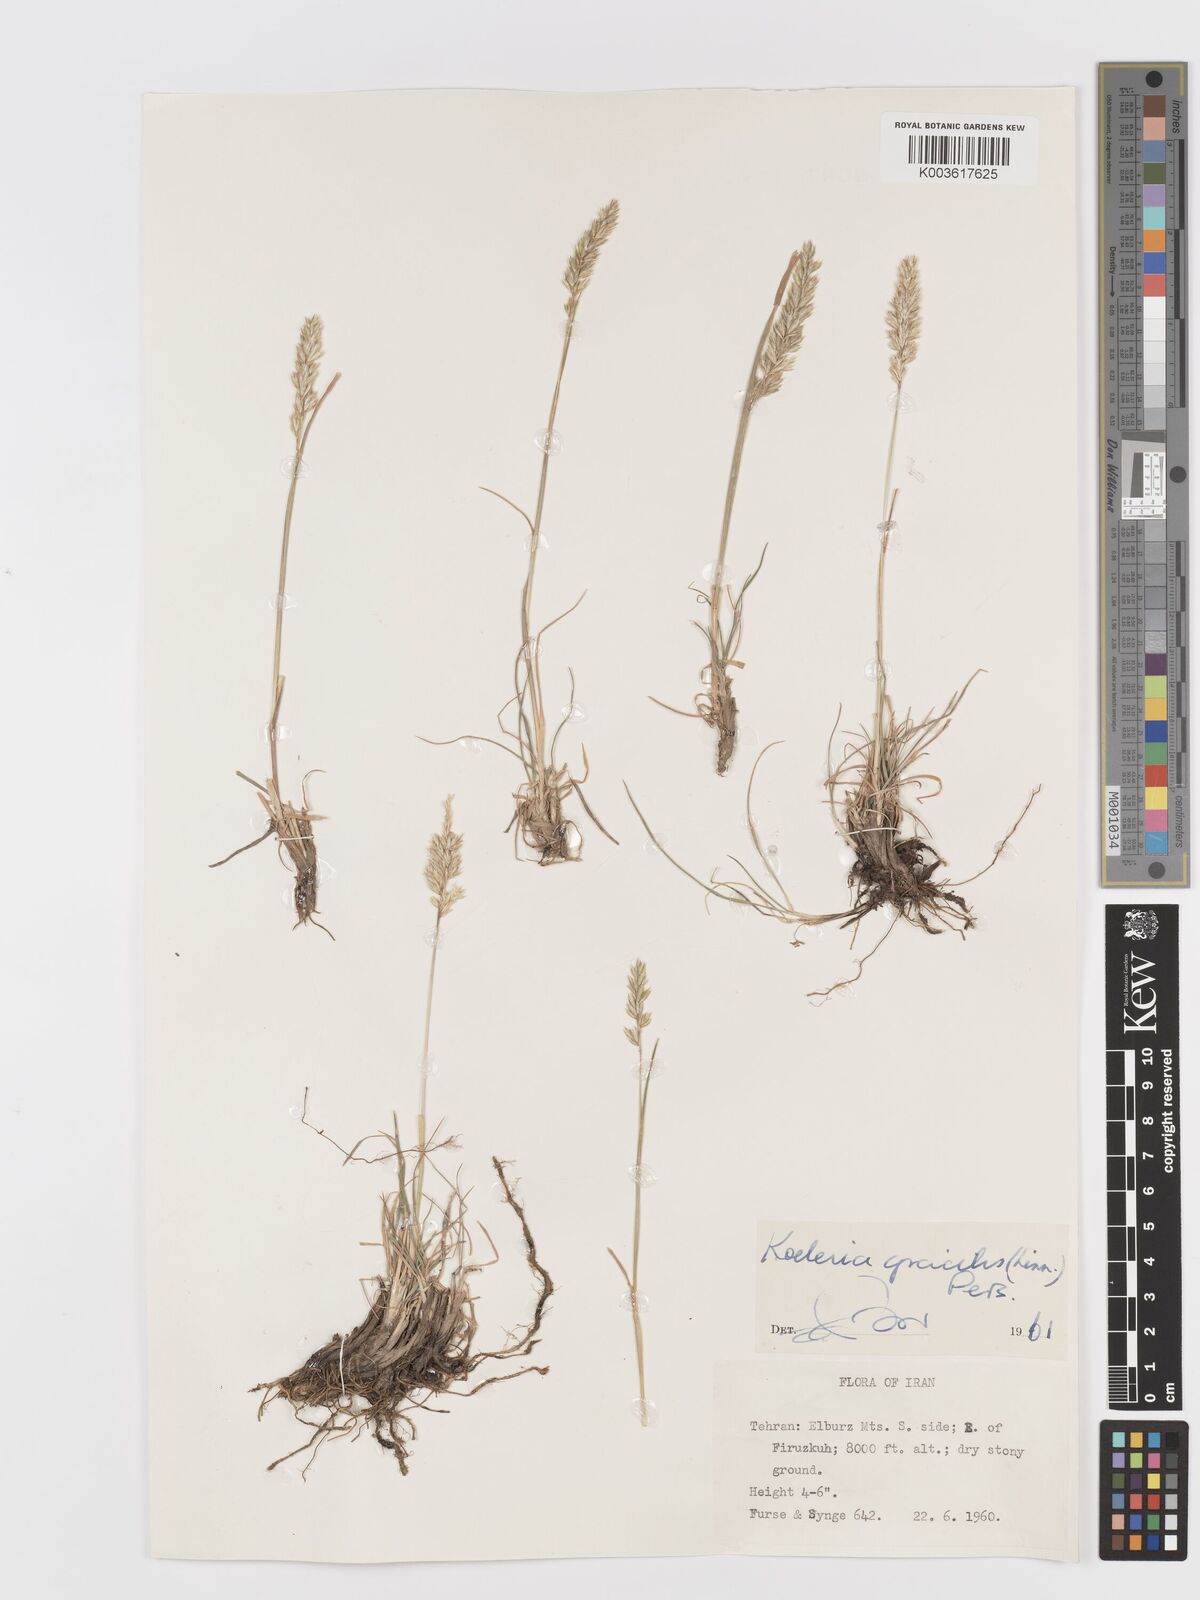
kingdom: Plantae
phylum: Tracheophyta
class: Liliopsida
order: Poales
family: Poaceae
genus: Koeleria
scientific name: Koeleria macrantha
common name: Crested hair-grass
